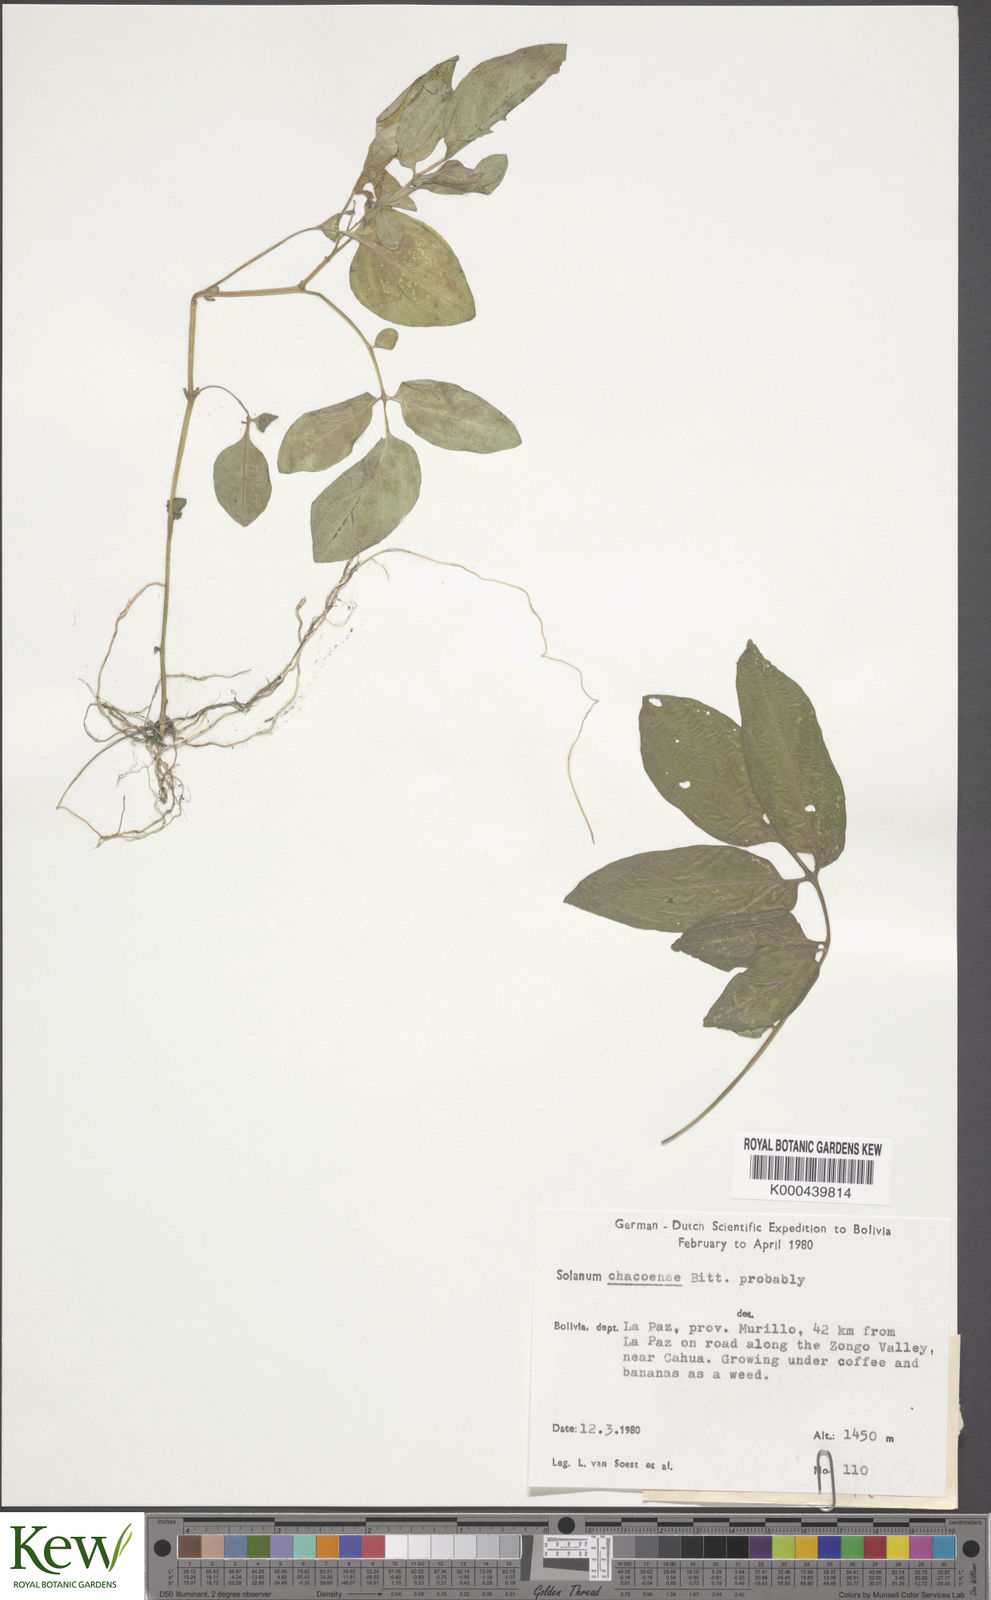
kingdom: Plantae
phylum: Tracheophyta
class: Magnoliopsida
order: Solanales
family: Solanaceae
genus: Solanum
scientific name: Solanum chacoense
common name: Chaco potato
